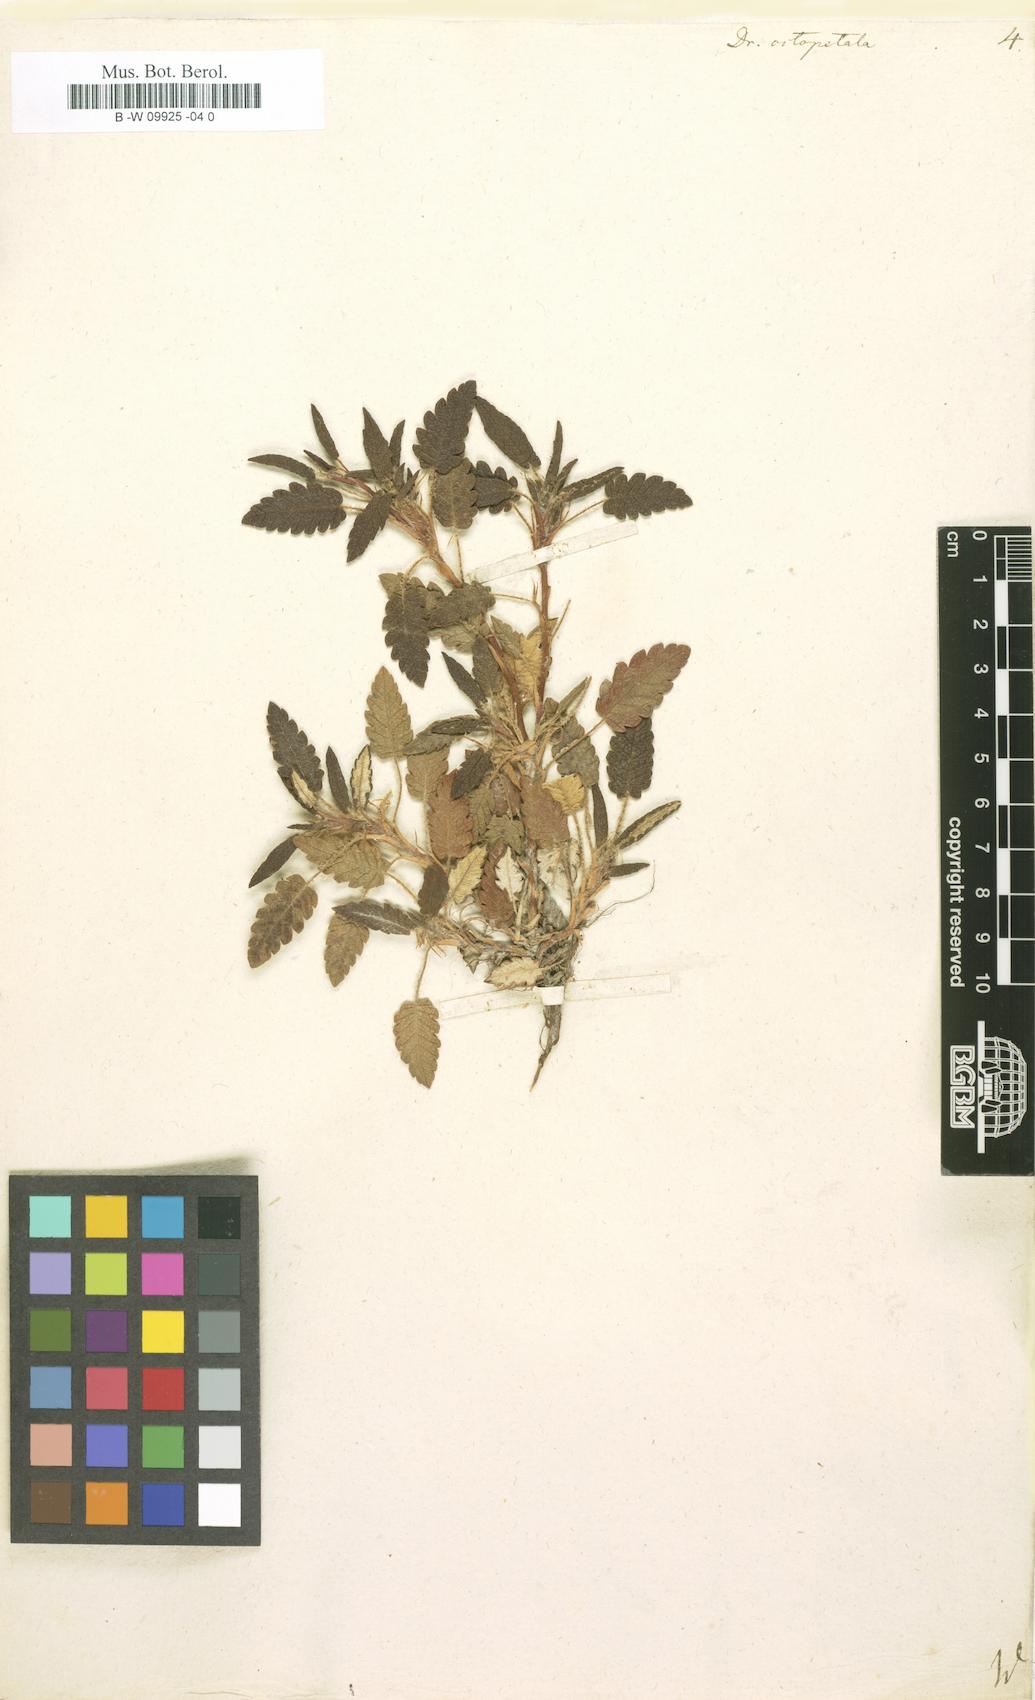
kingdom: Plantae
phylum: Tracheophyta
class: Magnoliopsida
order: Rosales
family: Rosaceae
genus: Dryas
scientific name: Dryas octopetala
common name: Eight-petal mountain-avens
